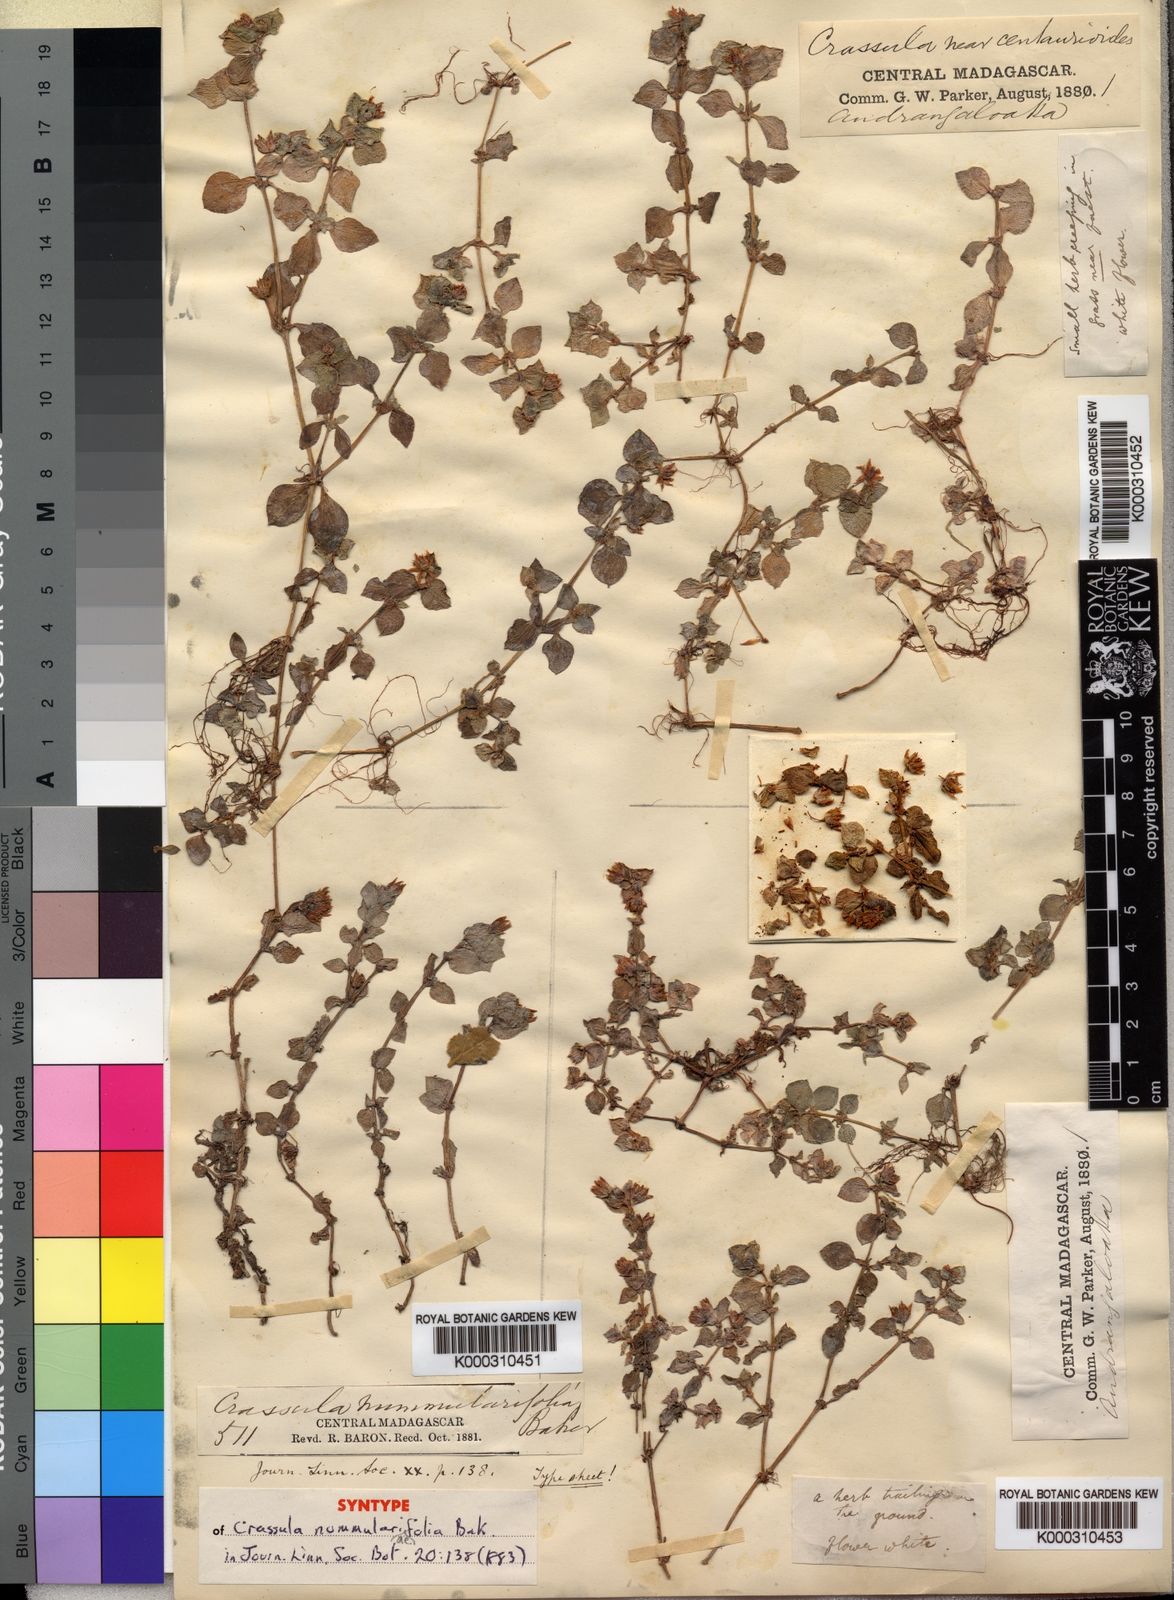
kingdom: Plantae
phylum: Tracheophyta
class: Magnoliopsida
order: Saxifragales
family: Crassulaceae
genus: Crassula
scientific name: Crassula
